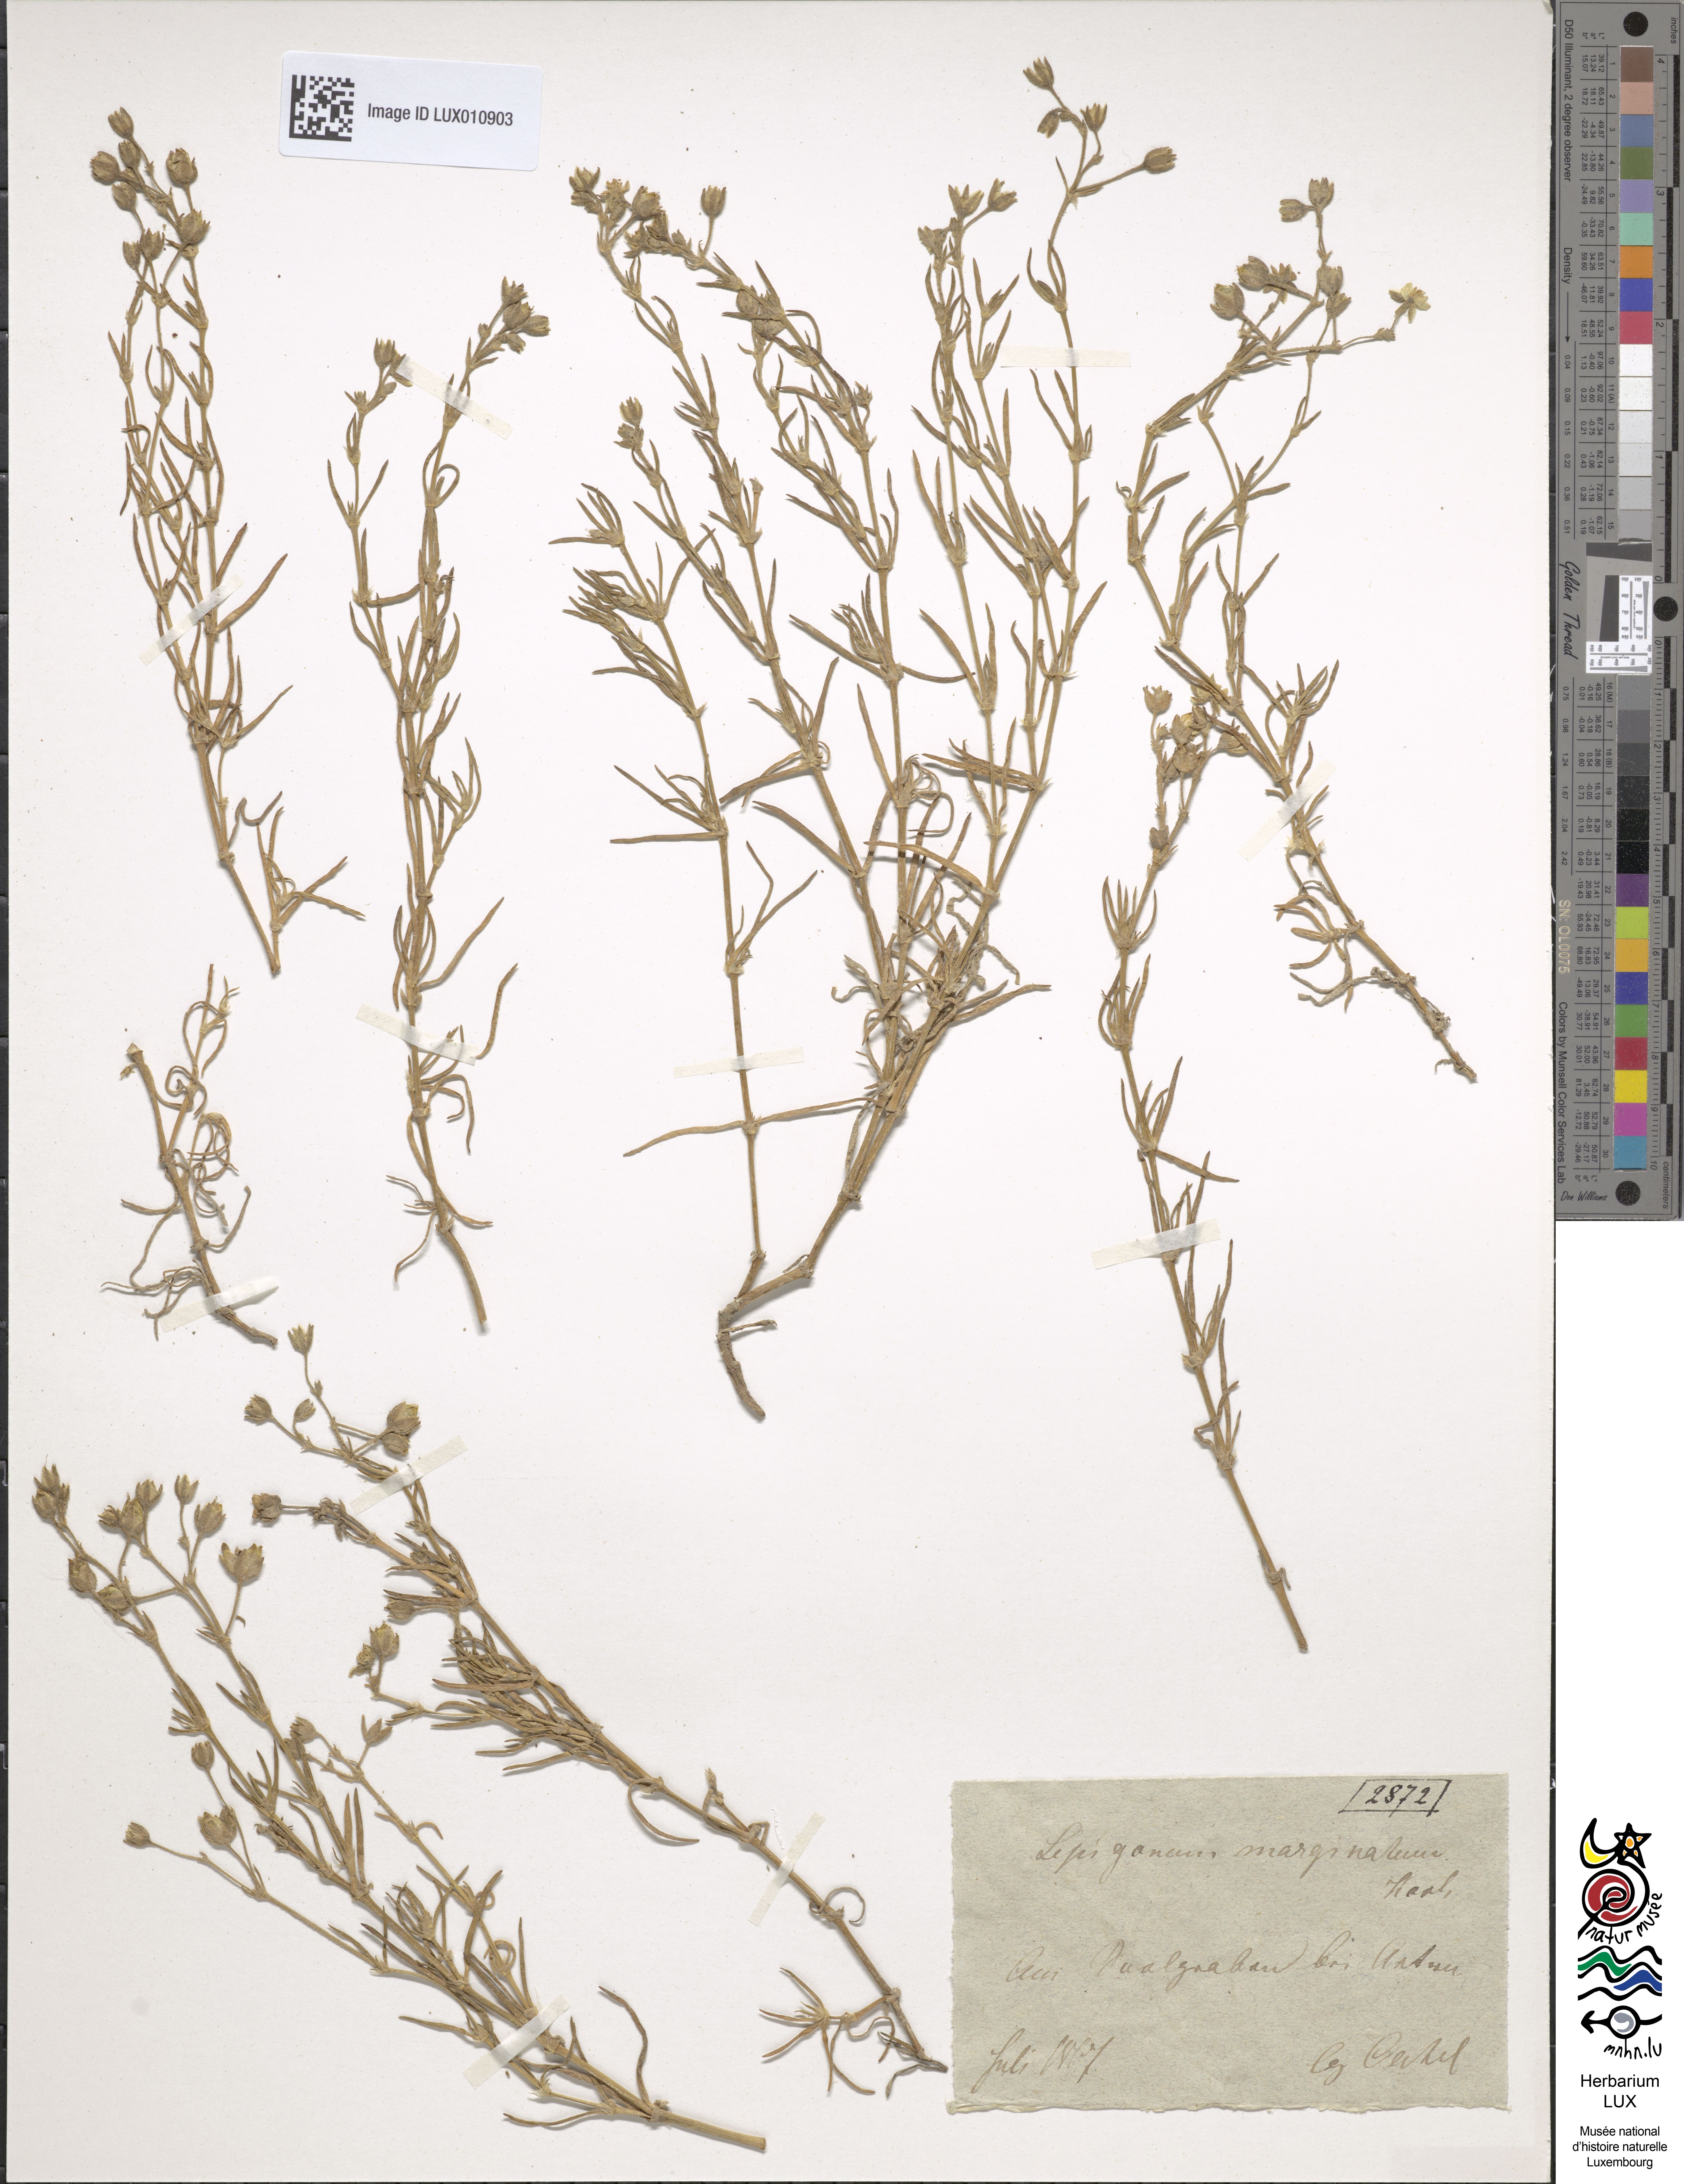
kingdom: Plantae
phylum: Tracheophyta
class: Magnoliopsida
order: Caryophyllales
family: Caryophyllaceae
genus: Spergularia
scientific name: Spergularia media
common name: Greater sea-spurrey
